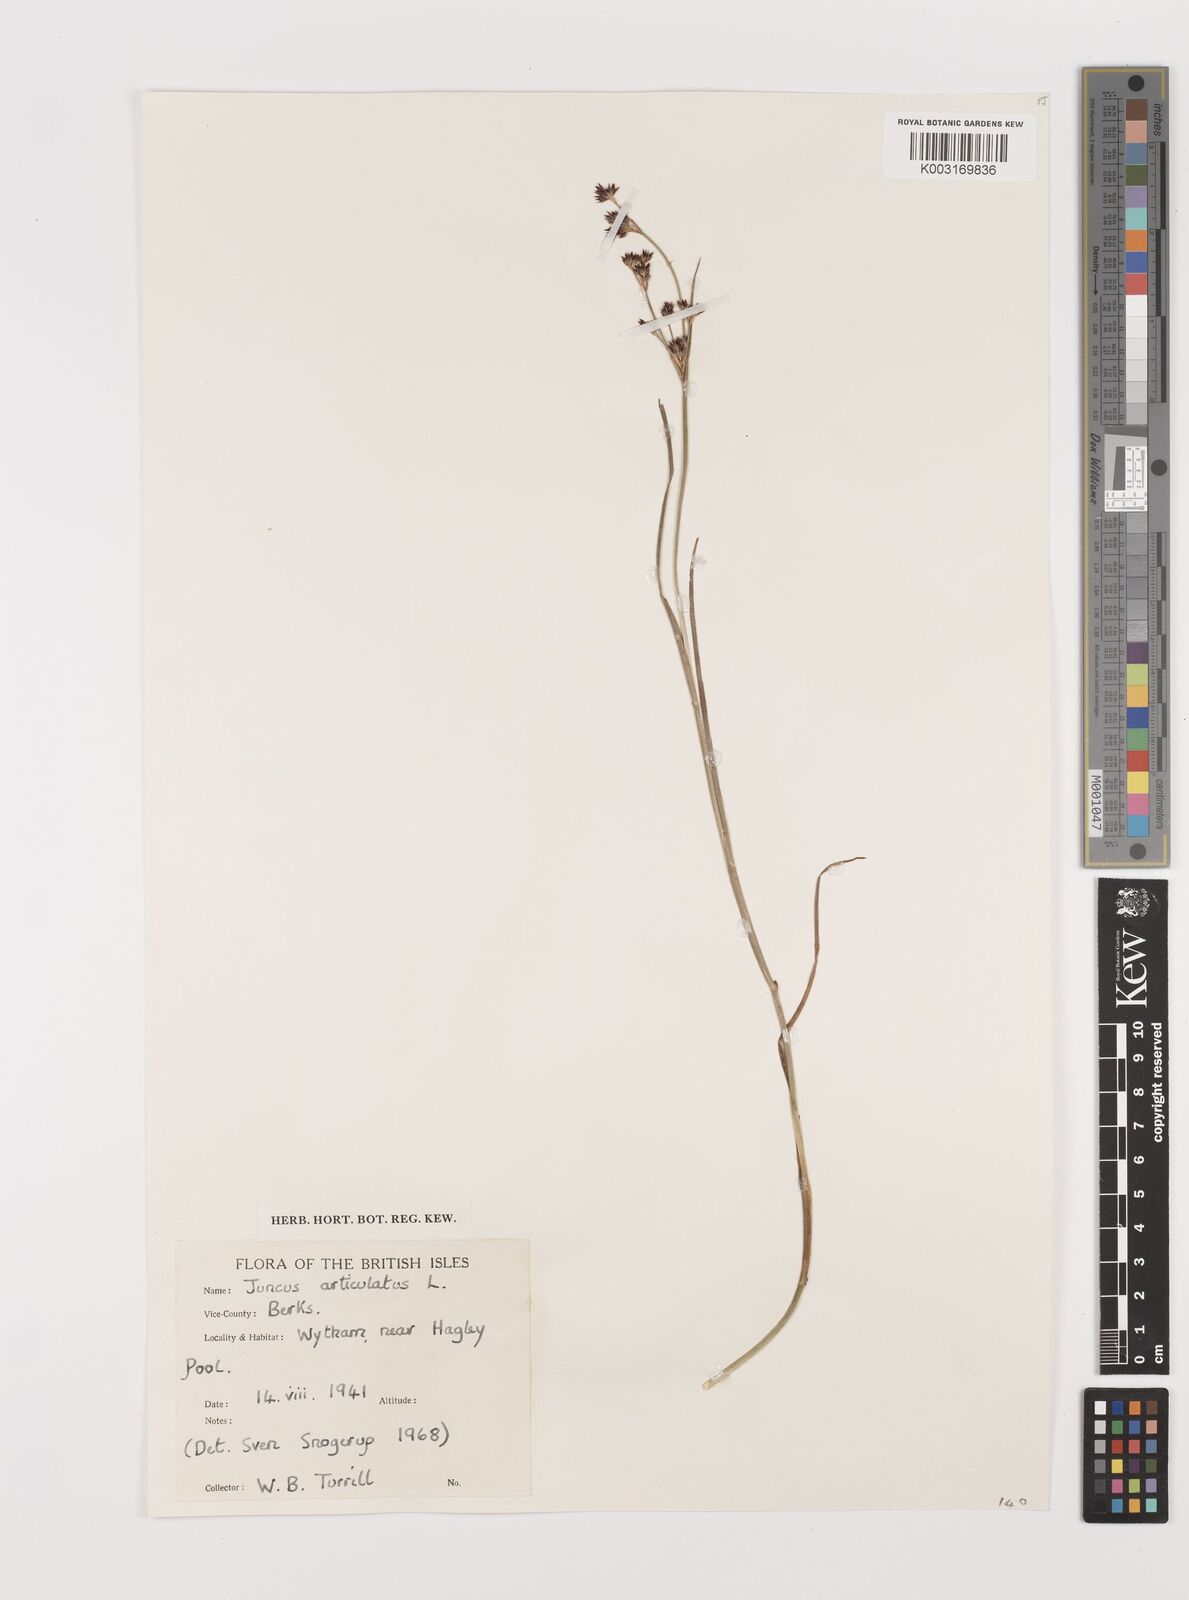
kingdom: Plantae
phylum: Tracheophyta
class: Liliopsida
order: Poales
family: Juncaceae
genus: Juncus
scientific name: Juncus articulatus
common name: Jointed rush
